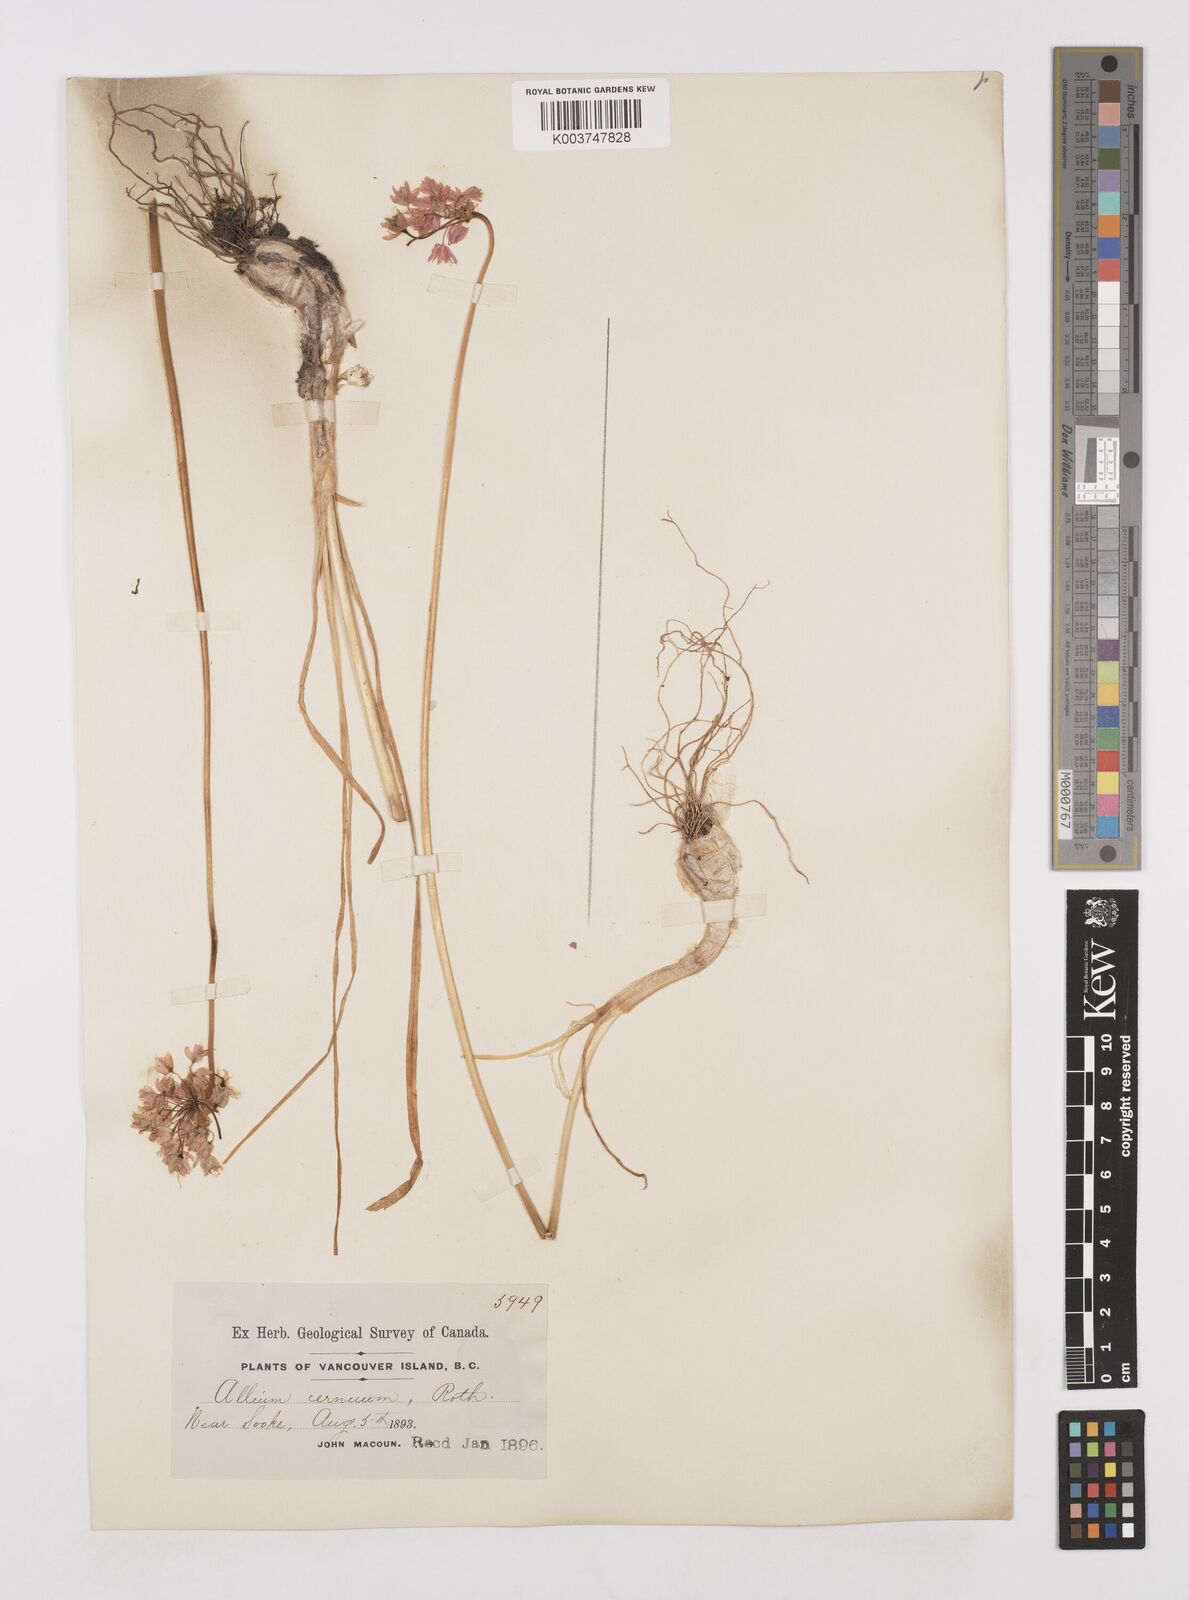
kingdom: Plantae
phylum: Tracheophyta
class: Liliopsida
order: Asparagales
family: Amaryllidaceae
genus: Allium
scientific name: Allium cernuum
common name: Nodding onion
